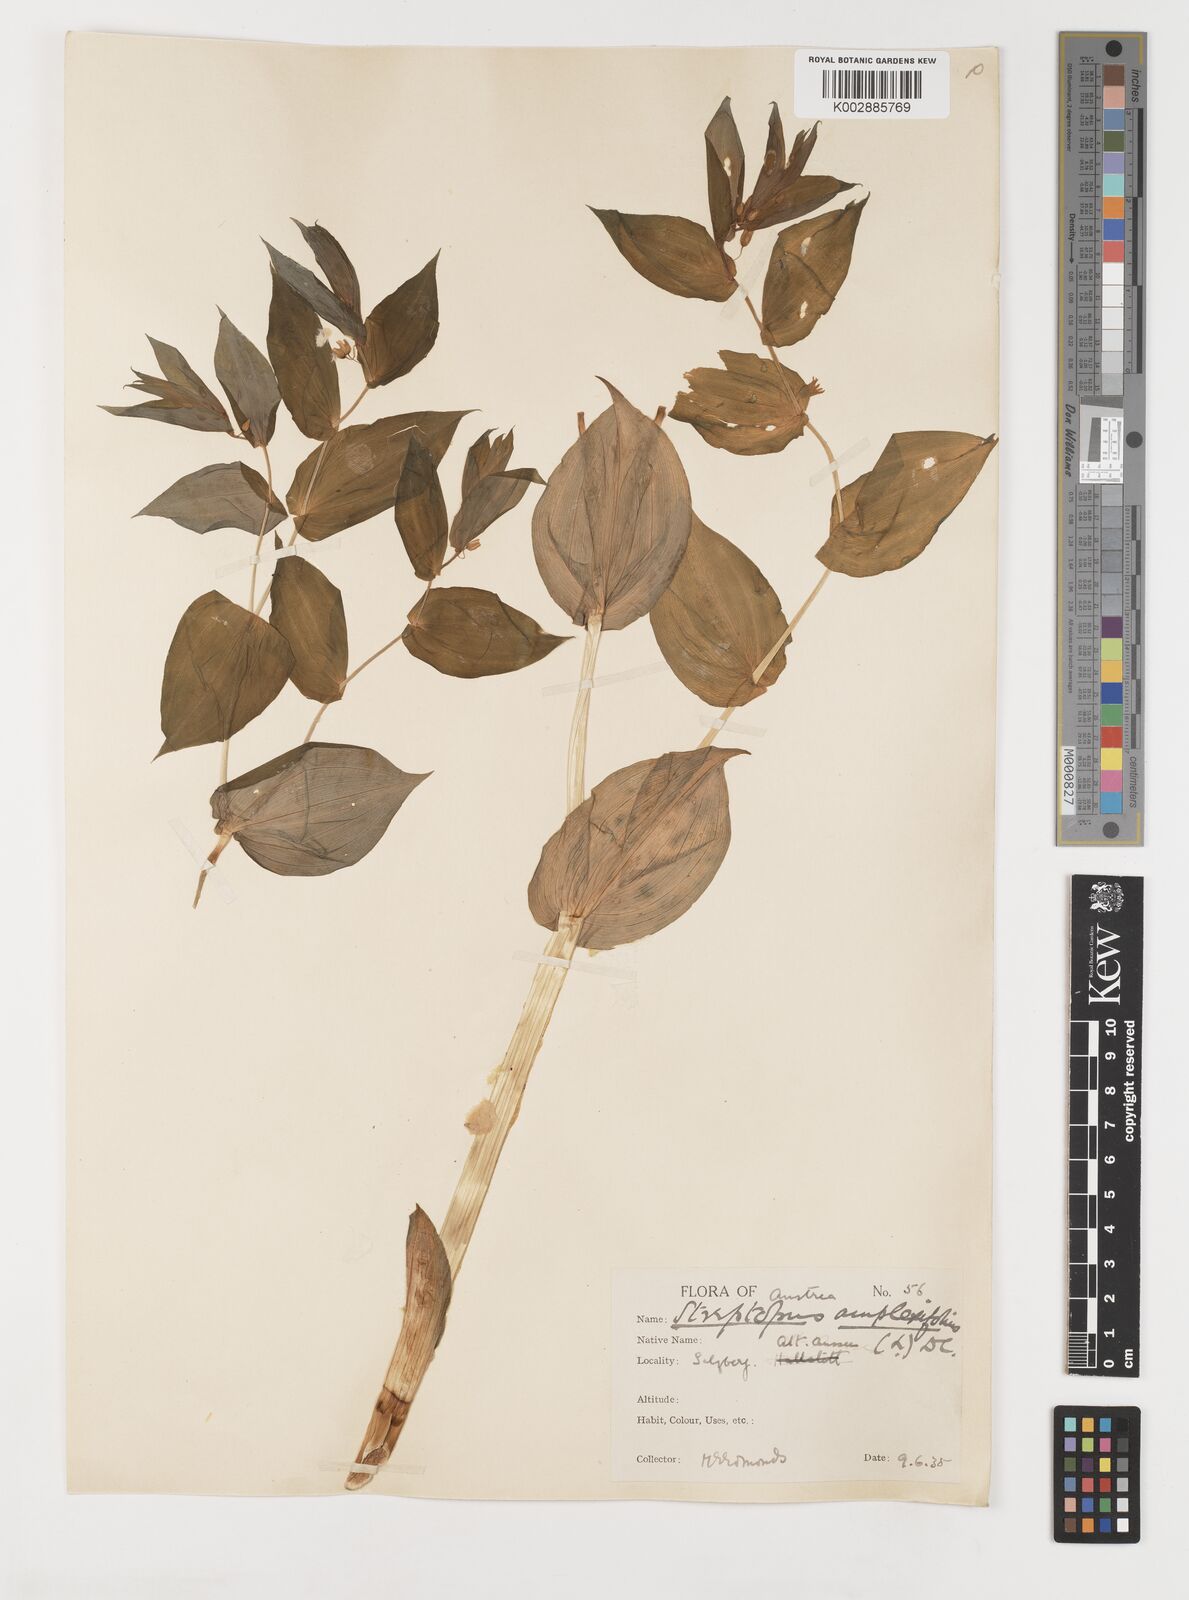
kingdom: Plantae
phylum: Tracheophyta
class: Liliopsida
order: Liliales
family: Liliaceae
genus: Streptopus
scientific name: Streptopus amplexifolius
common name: Clasp twisted stalk
